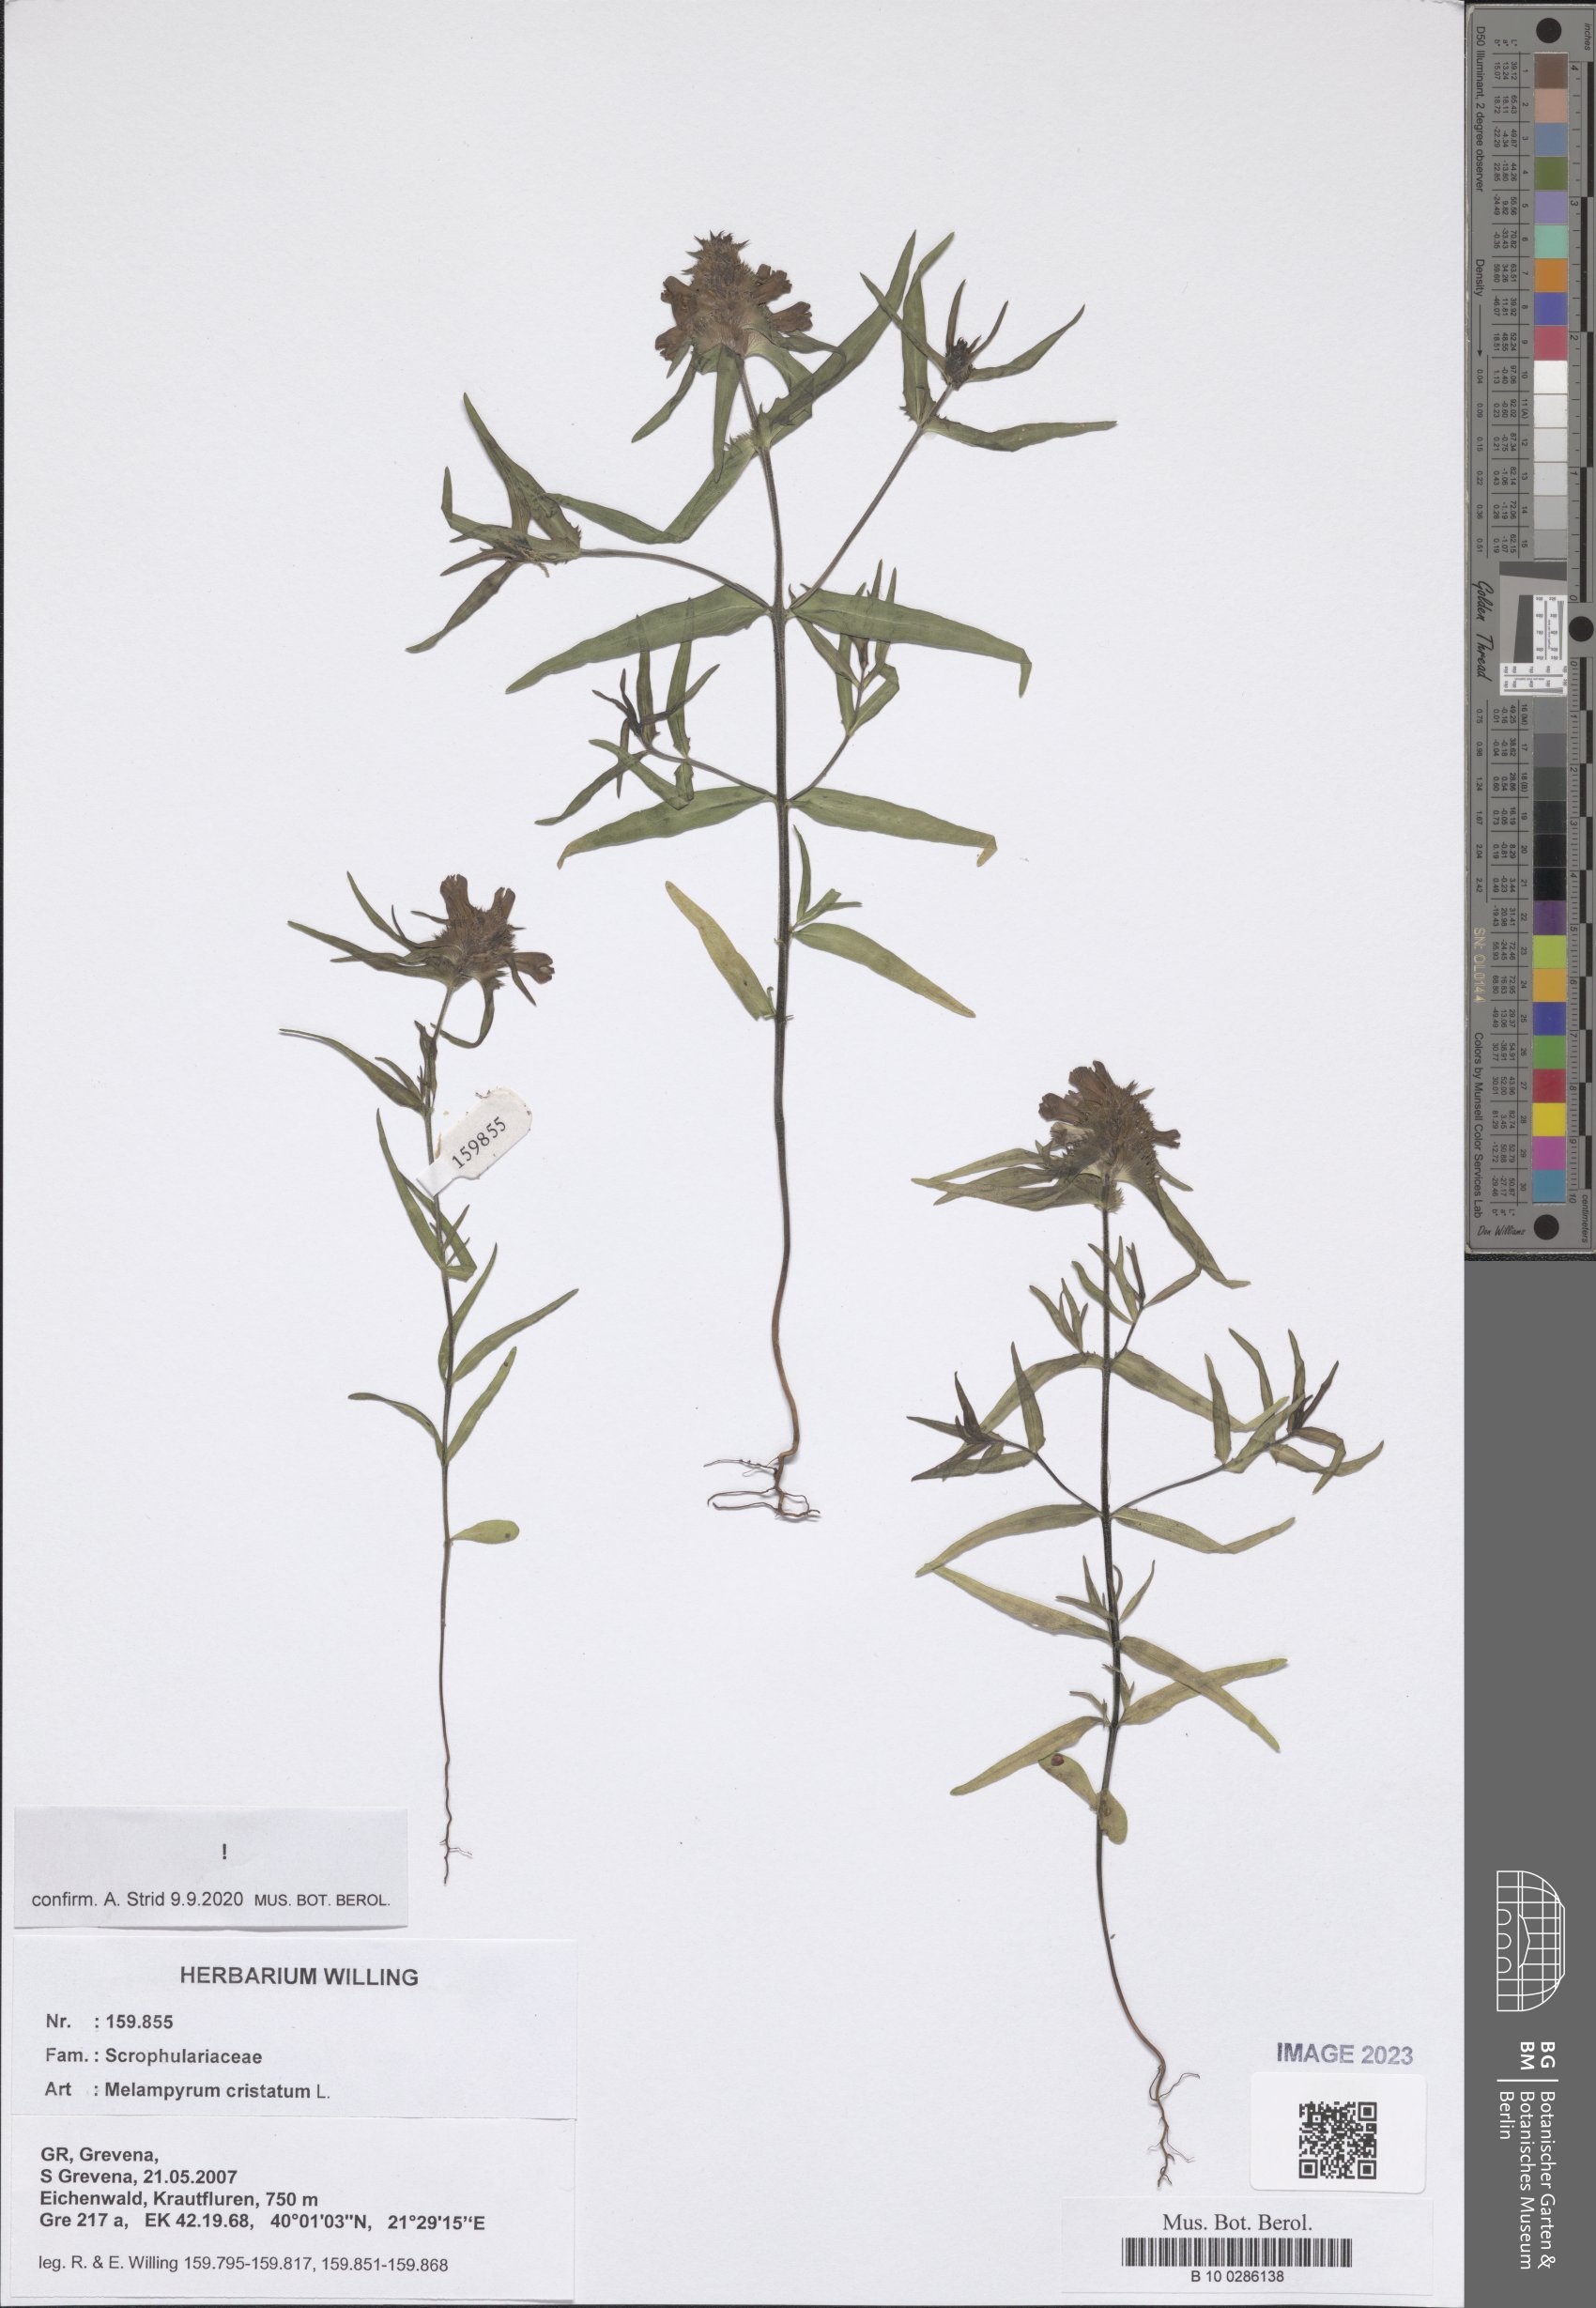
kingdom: Plantae
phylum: Tracheophyta
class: Magnoliopsida
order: Lamiales
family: Orobanchaceae
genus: Melampyrum
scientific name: Melampyrum cristatum
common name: Crested cow-wheat
